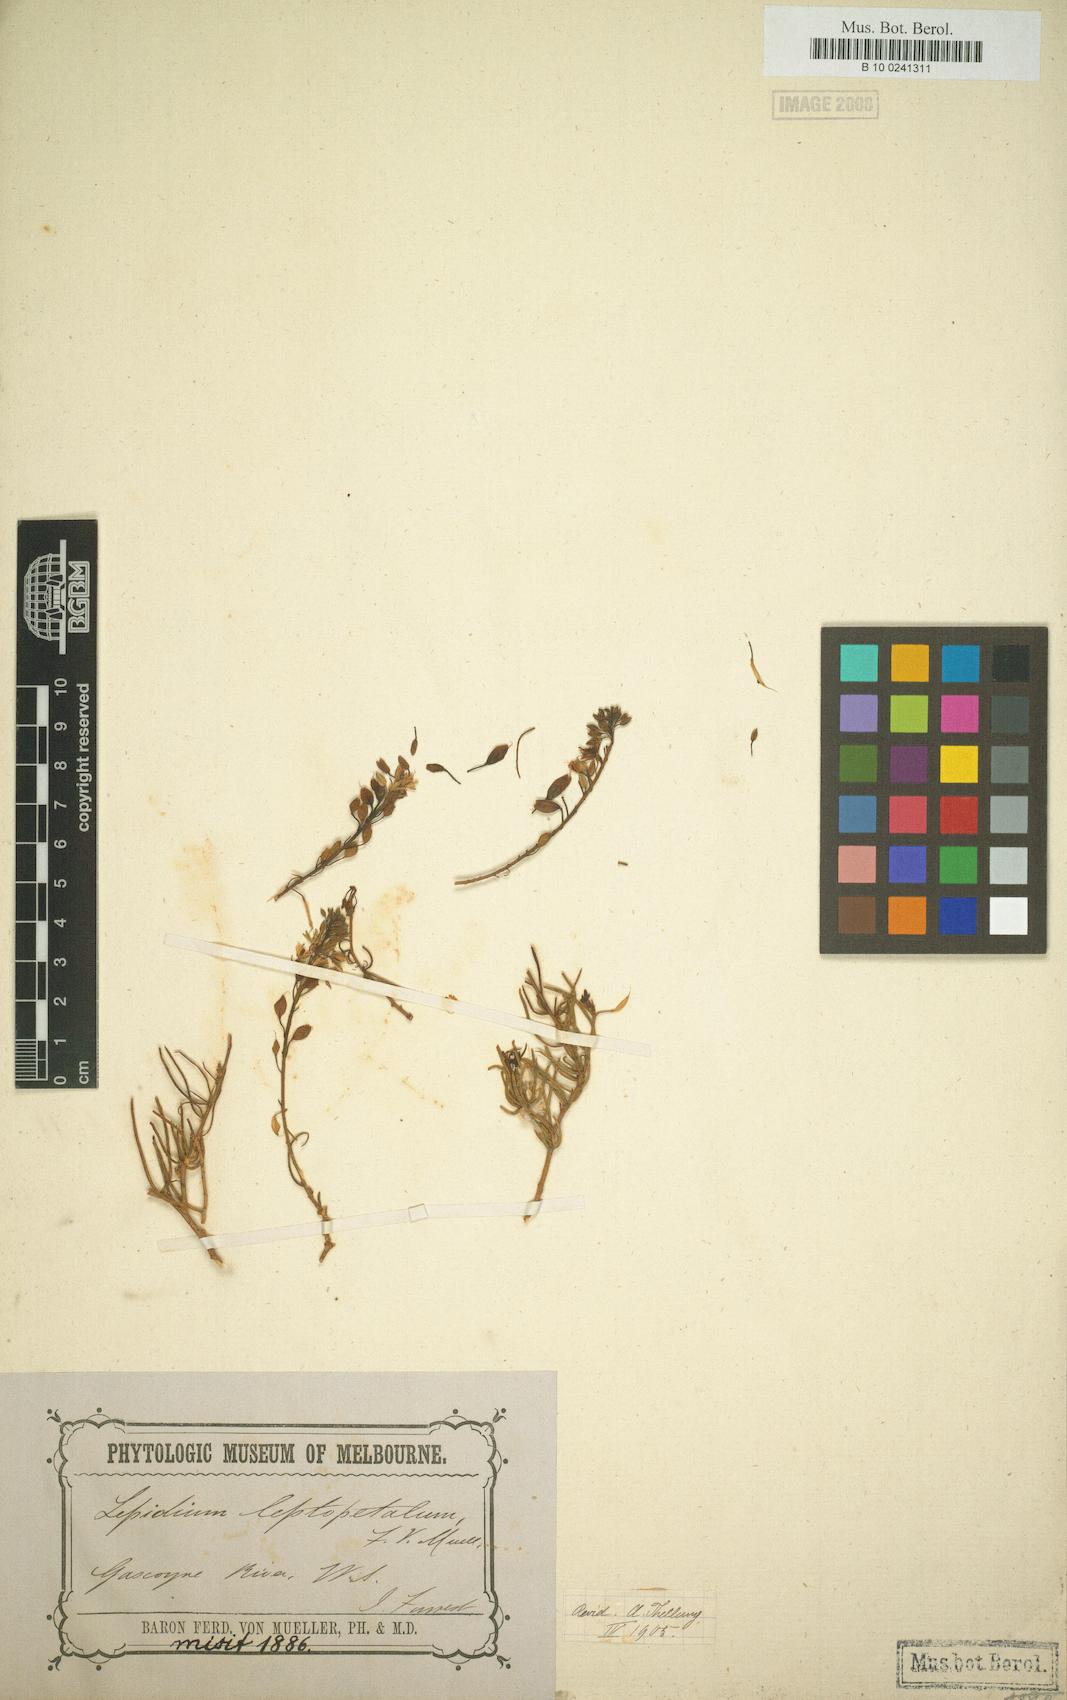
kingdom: Plantae
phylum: Tracheophyta
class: Magnoliopsida
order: Brassicales
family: Brassicaceae
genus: Lepidium
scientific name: Lepidium leptopetalum
